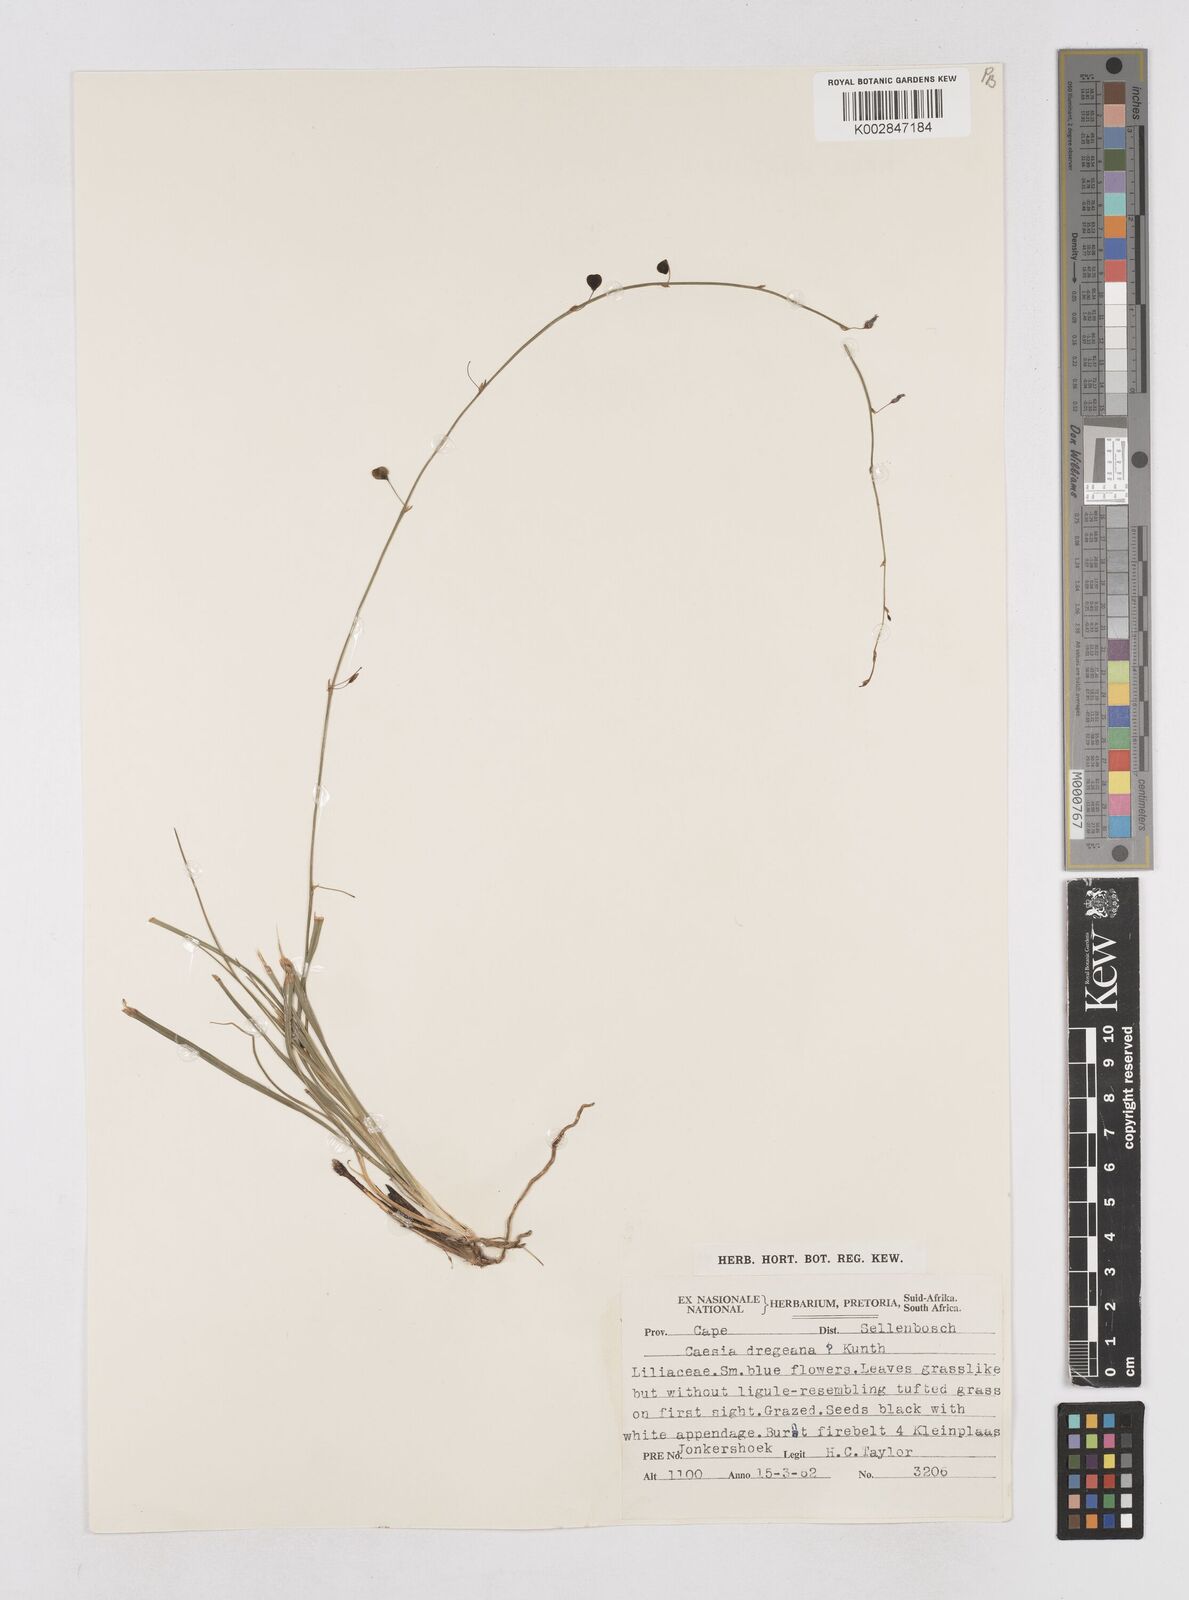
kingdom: Plantae
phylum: Tracheophyta
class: Liliopsida
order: Asparagales
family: Asphodelaceae
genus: Caesia
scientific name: Caesia contorta
